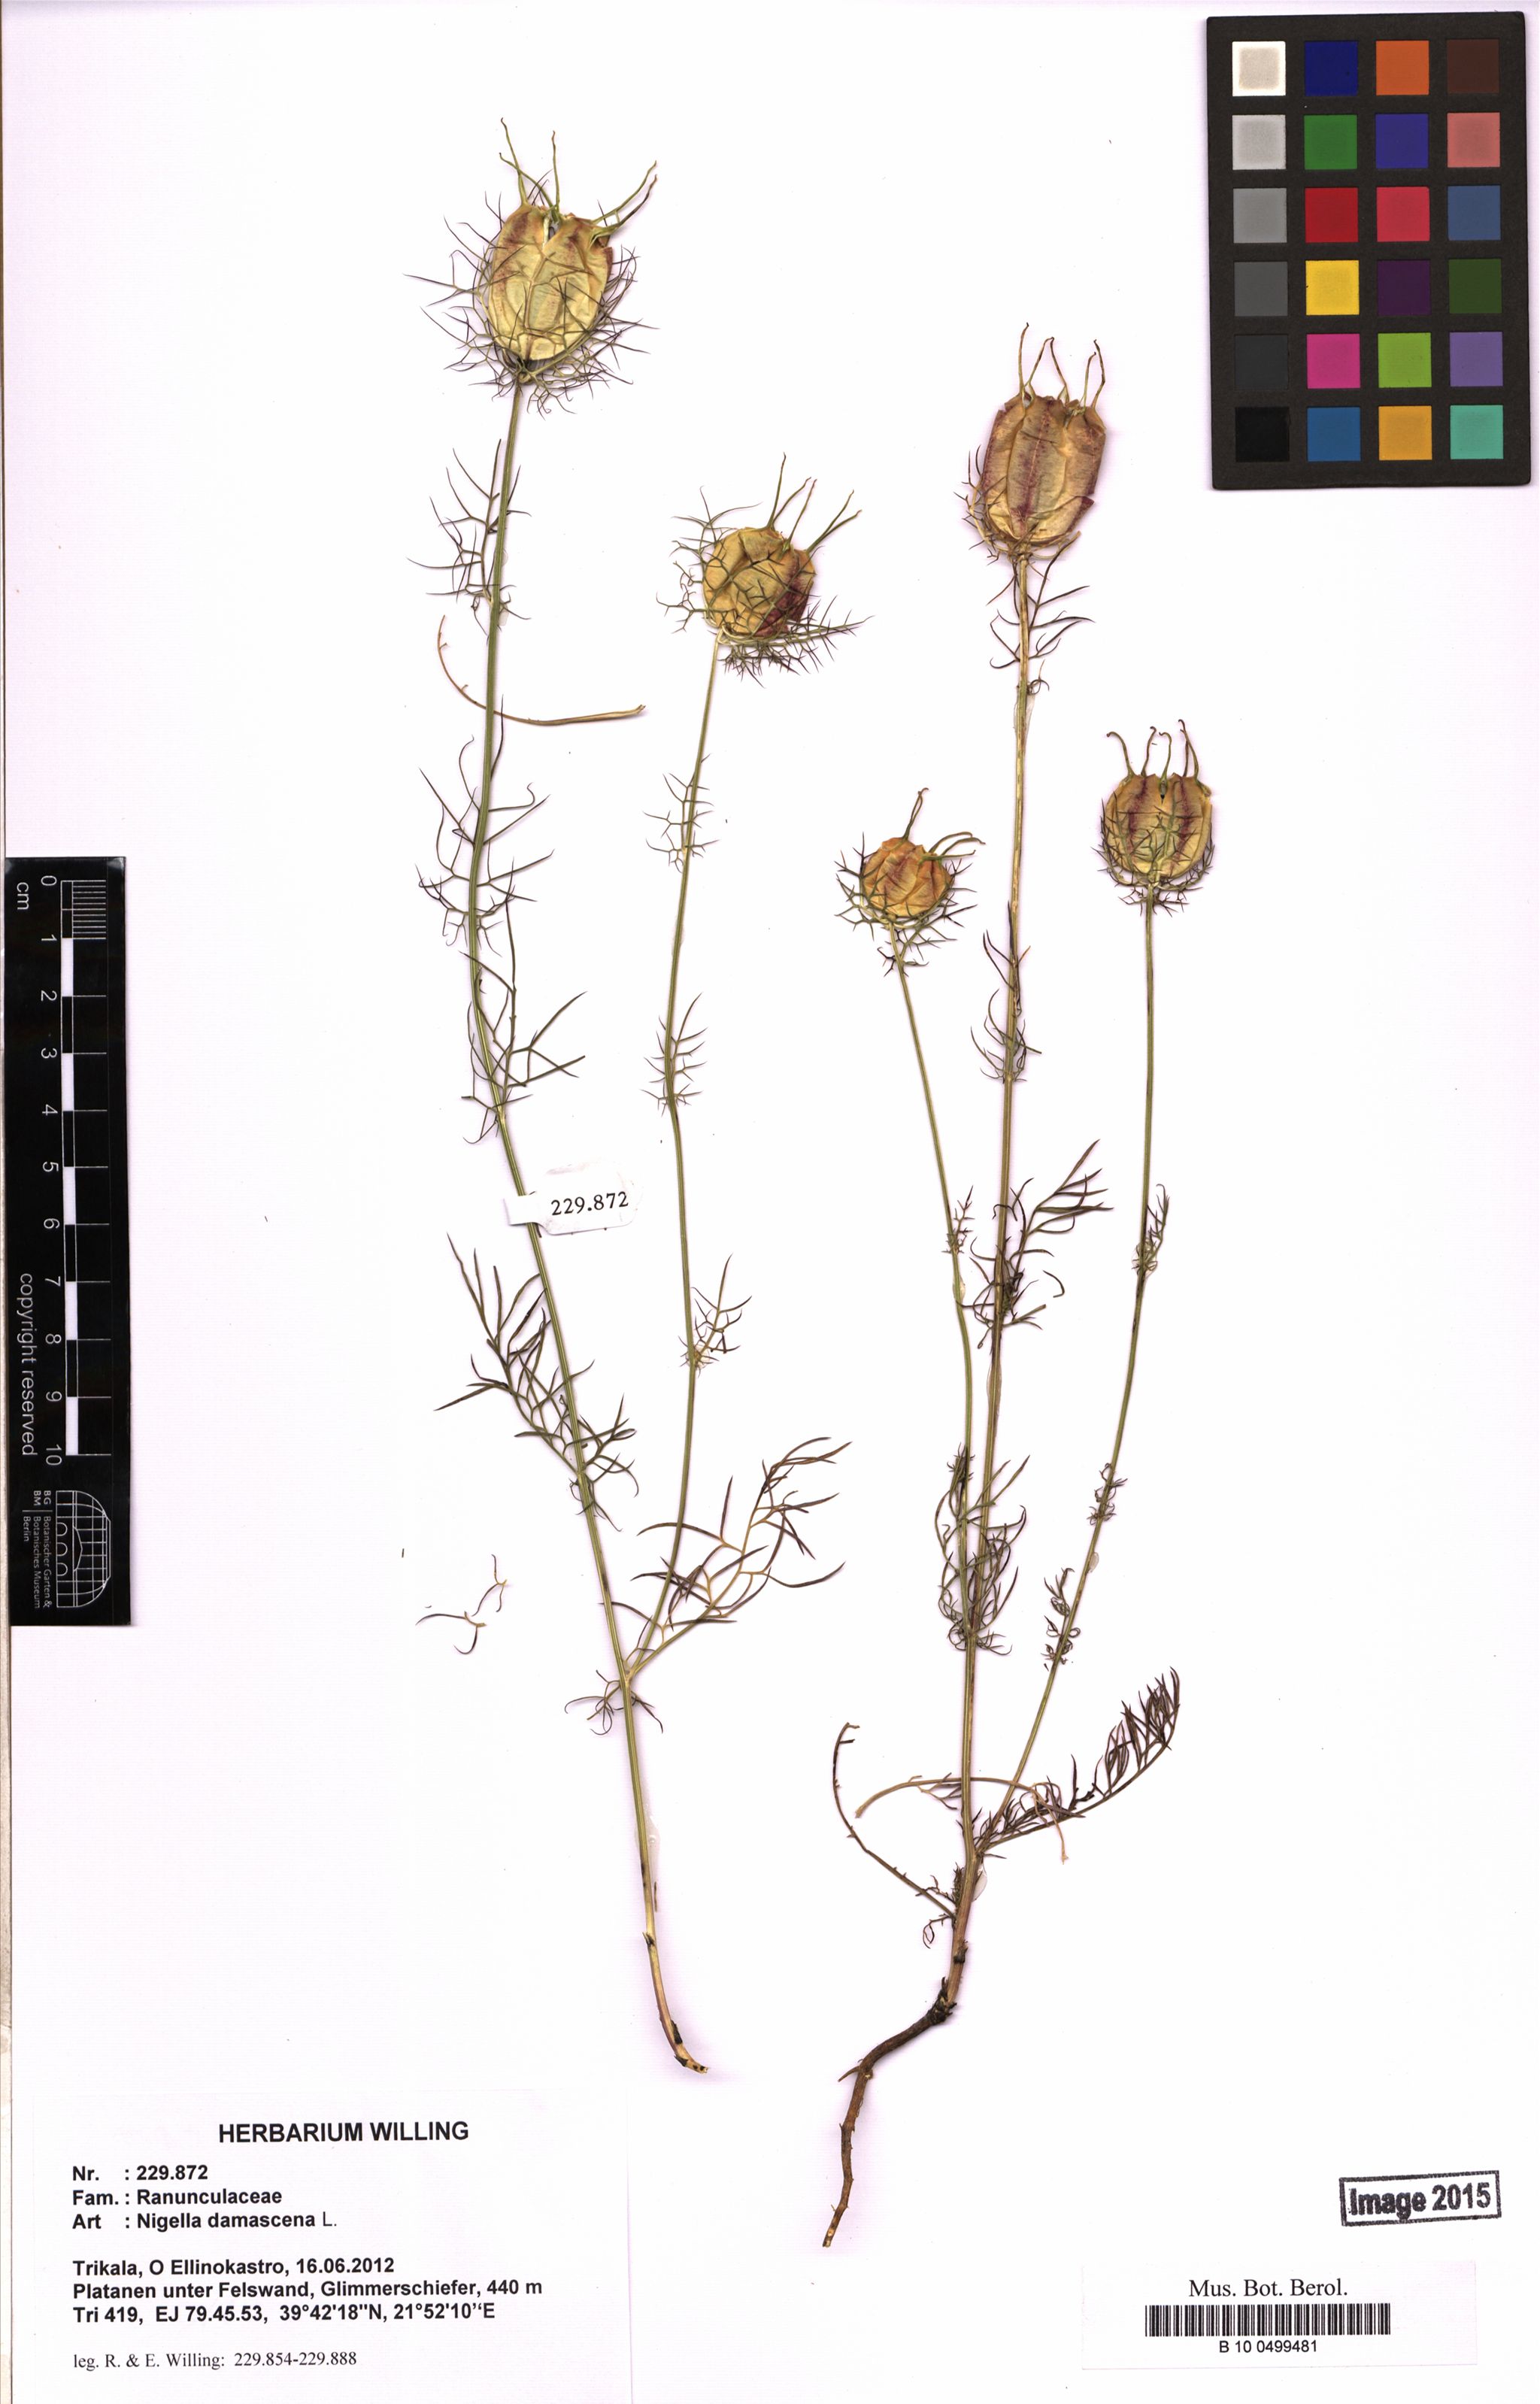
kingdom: Plantae
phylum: Tracheophyta
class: Magnoliopsida
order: Ranunculales
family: Ranunculaceae
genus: Nigella
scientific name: Nigella damascena
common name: Love-in-a-mist
